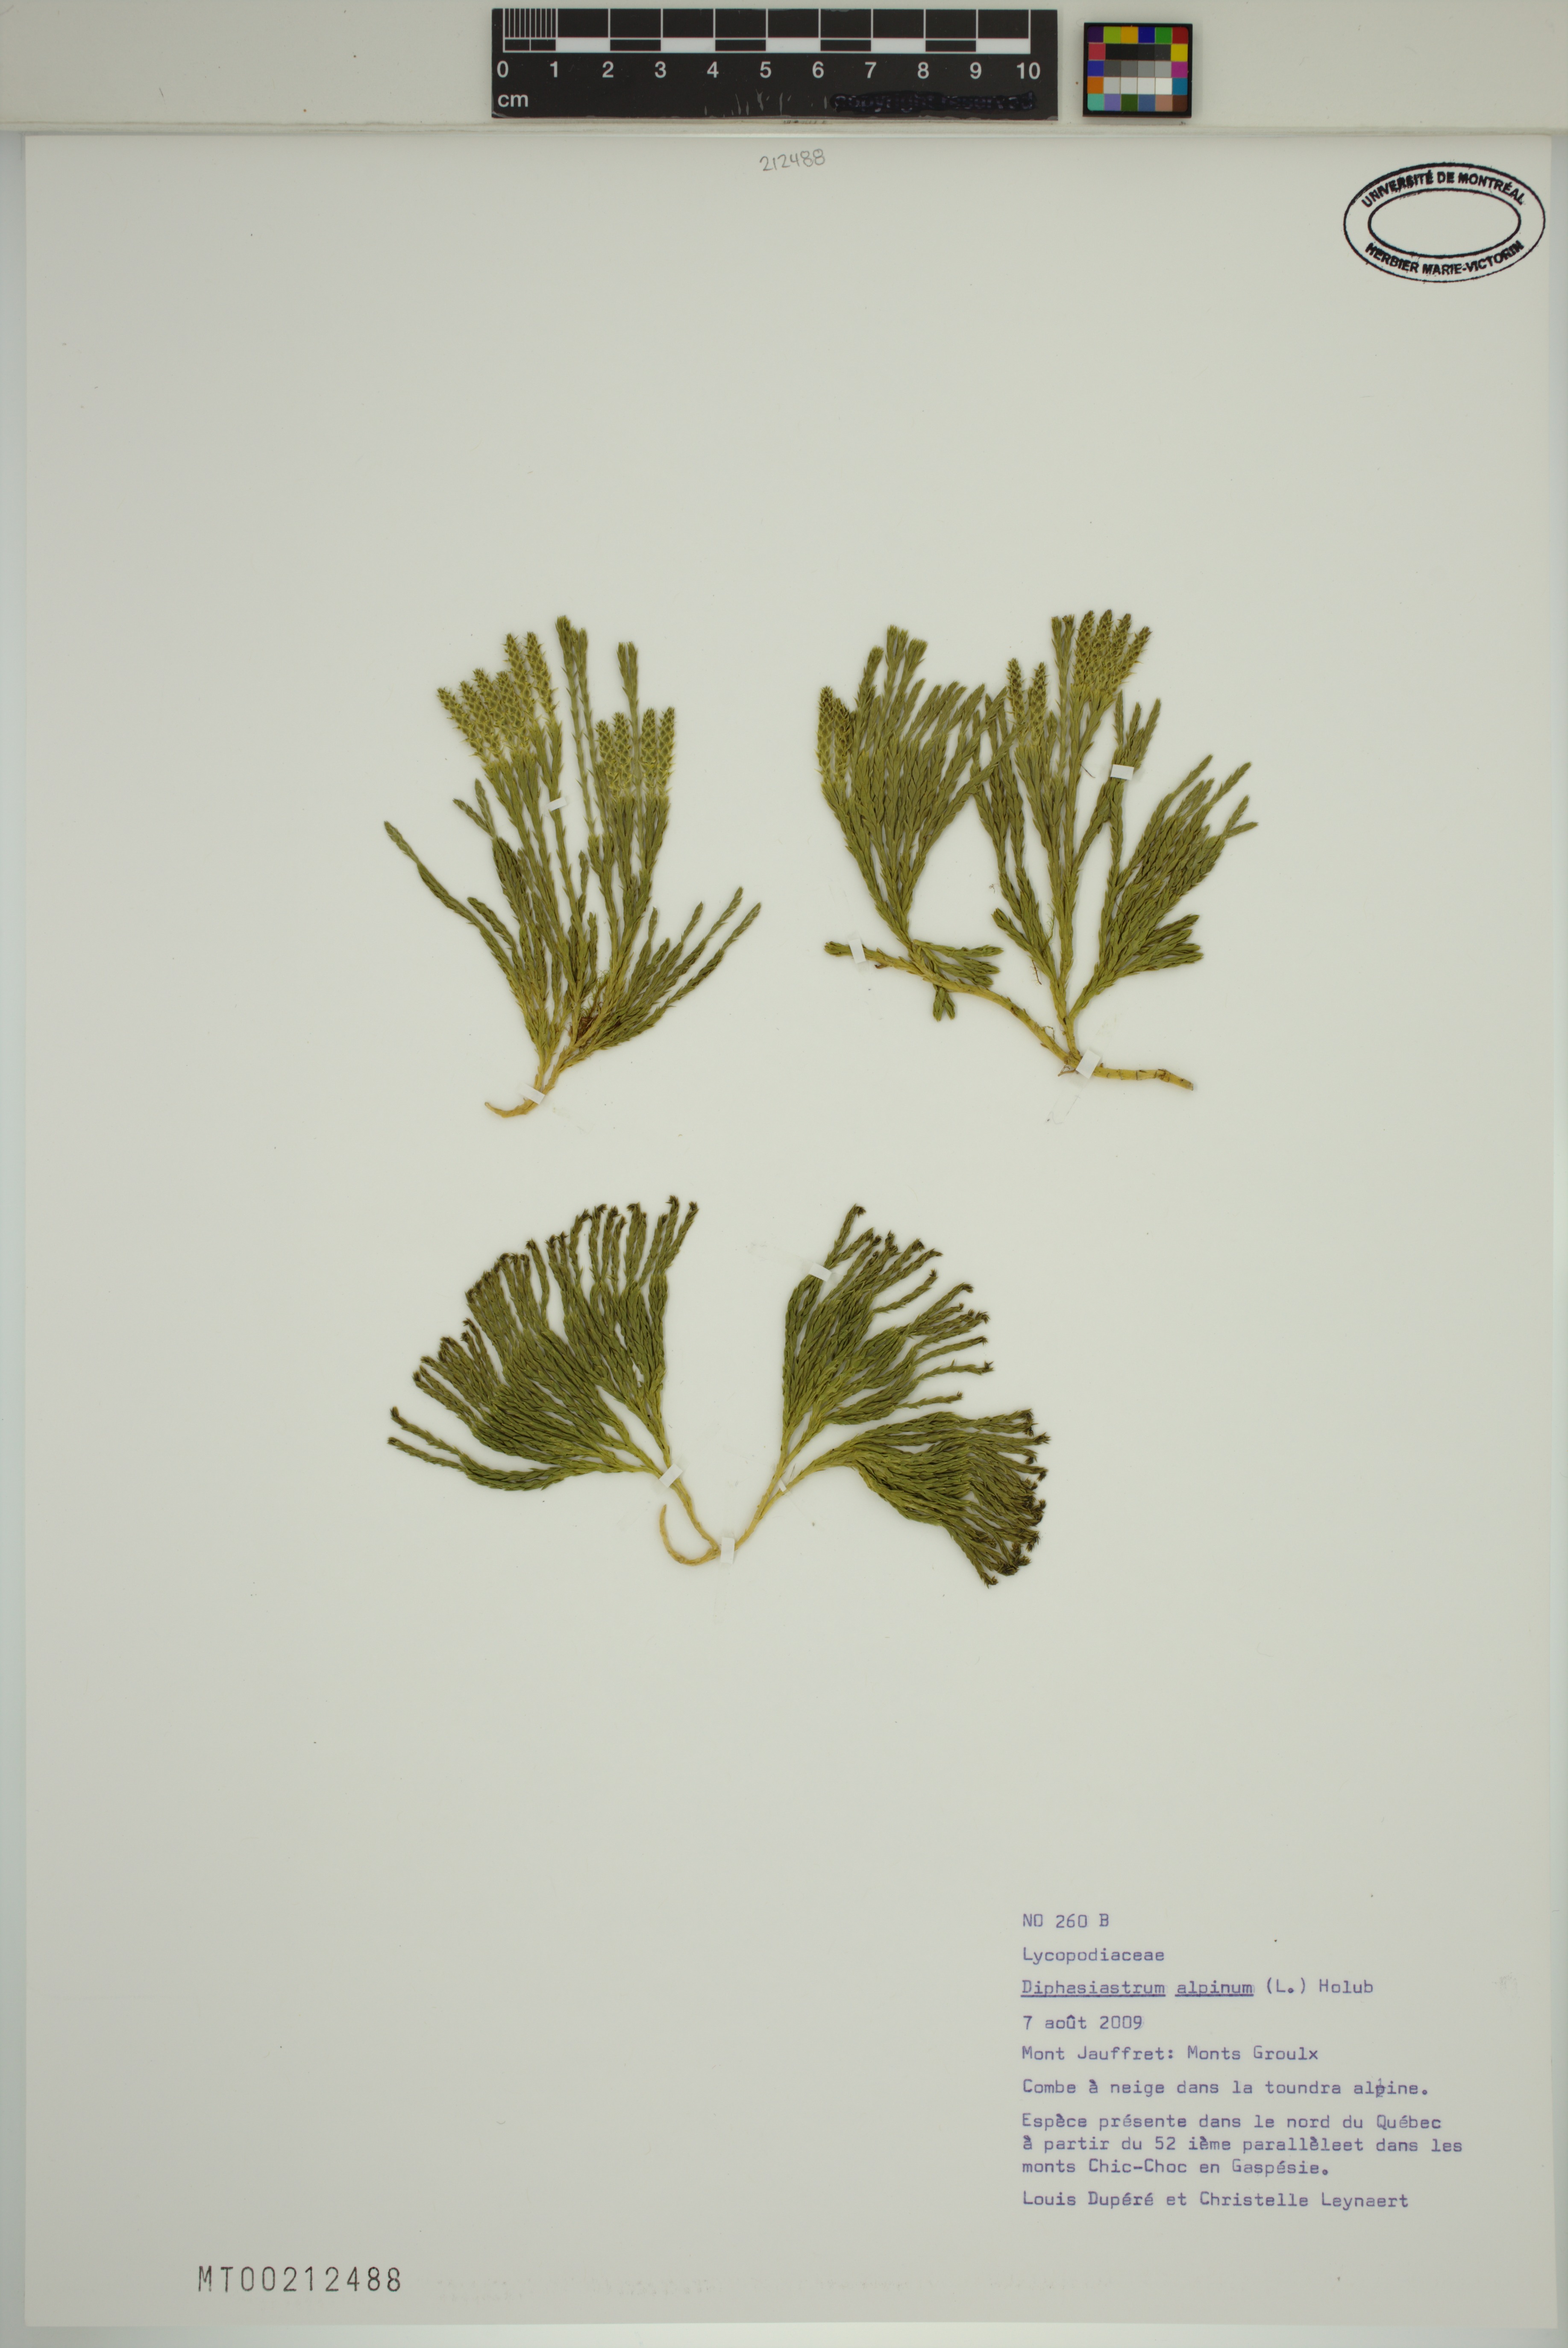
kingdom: Plantae
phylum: Tracheophyta
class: Lycopodiopsida
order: Lycopodiales
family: Lycopodiaceae
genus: Diphasiastrum
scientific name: Diphasiastrum alpinum
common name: Alpine clubmoss
